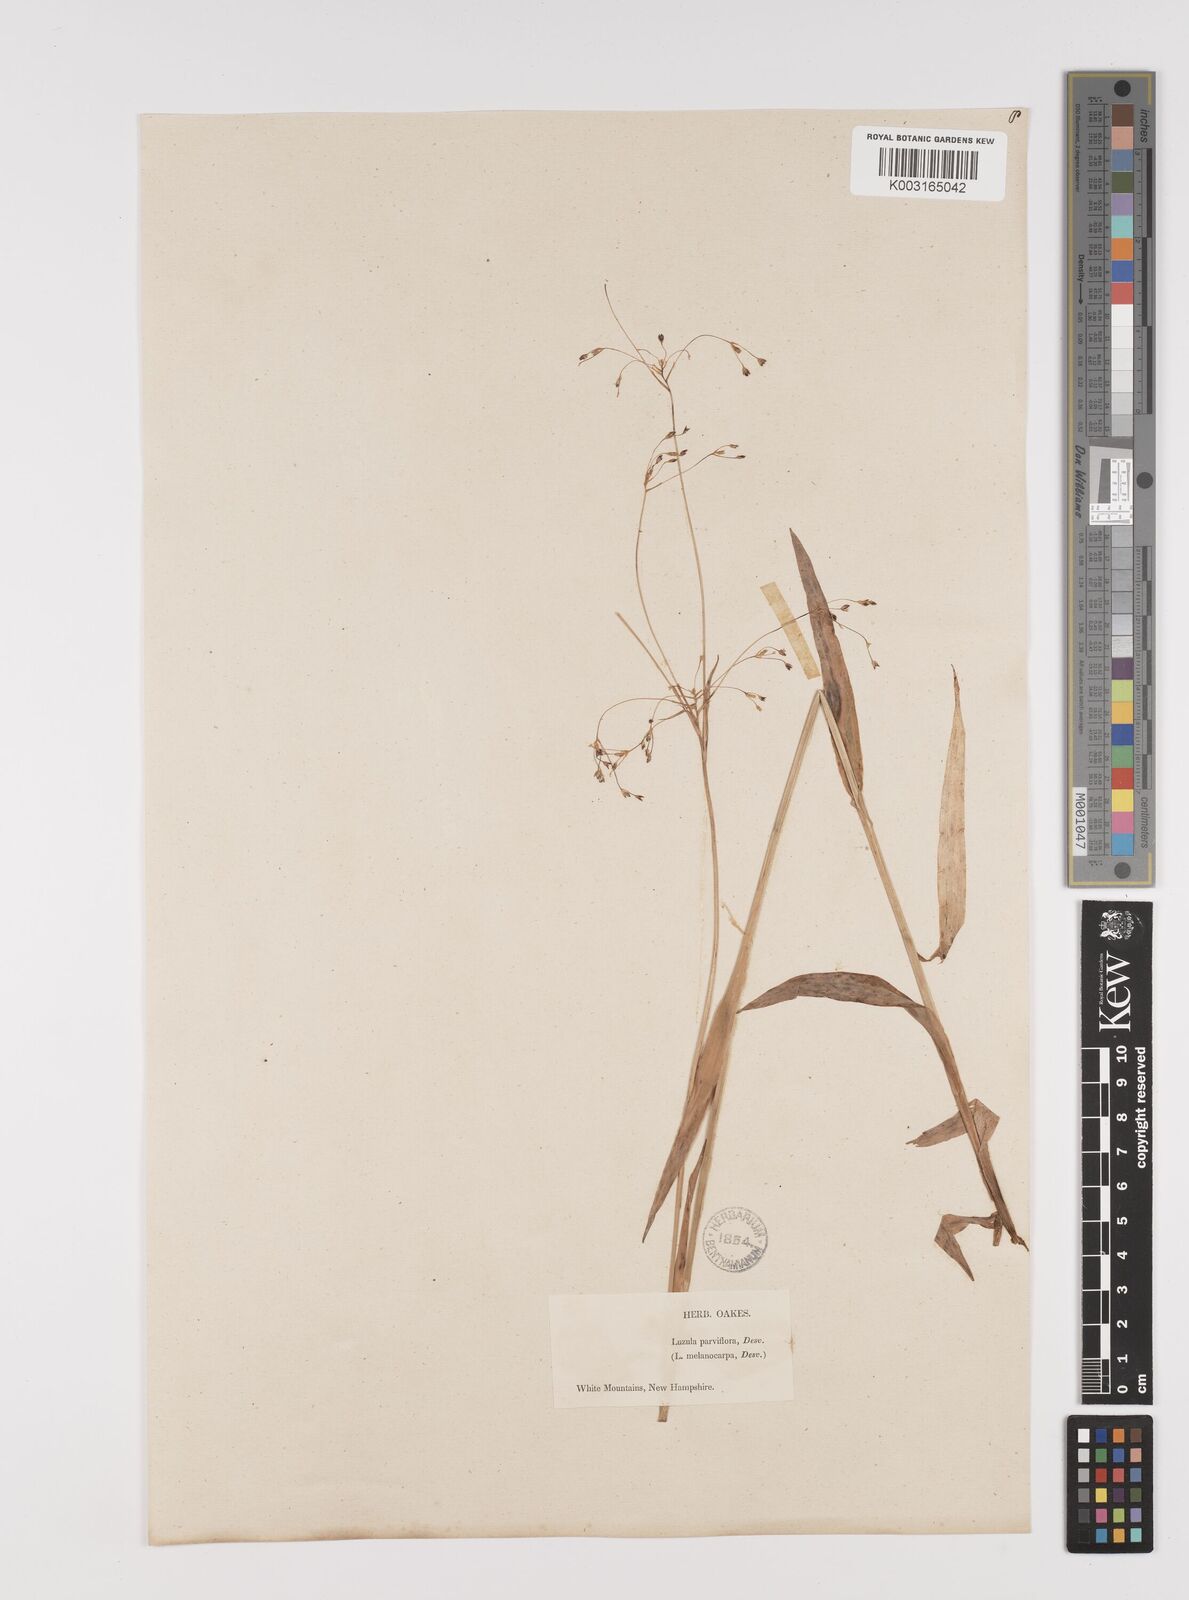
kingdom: Plantae
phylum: Tracheophyta
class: Liliopsida
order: Poales
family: Juncaceae
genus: Luzula
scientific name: Luzula parviflora
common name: Millet woodrush
